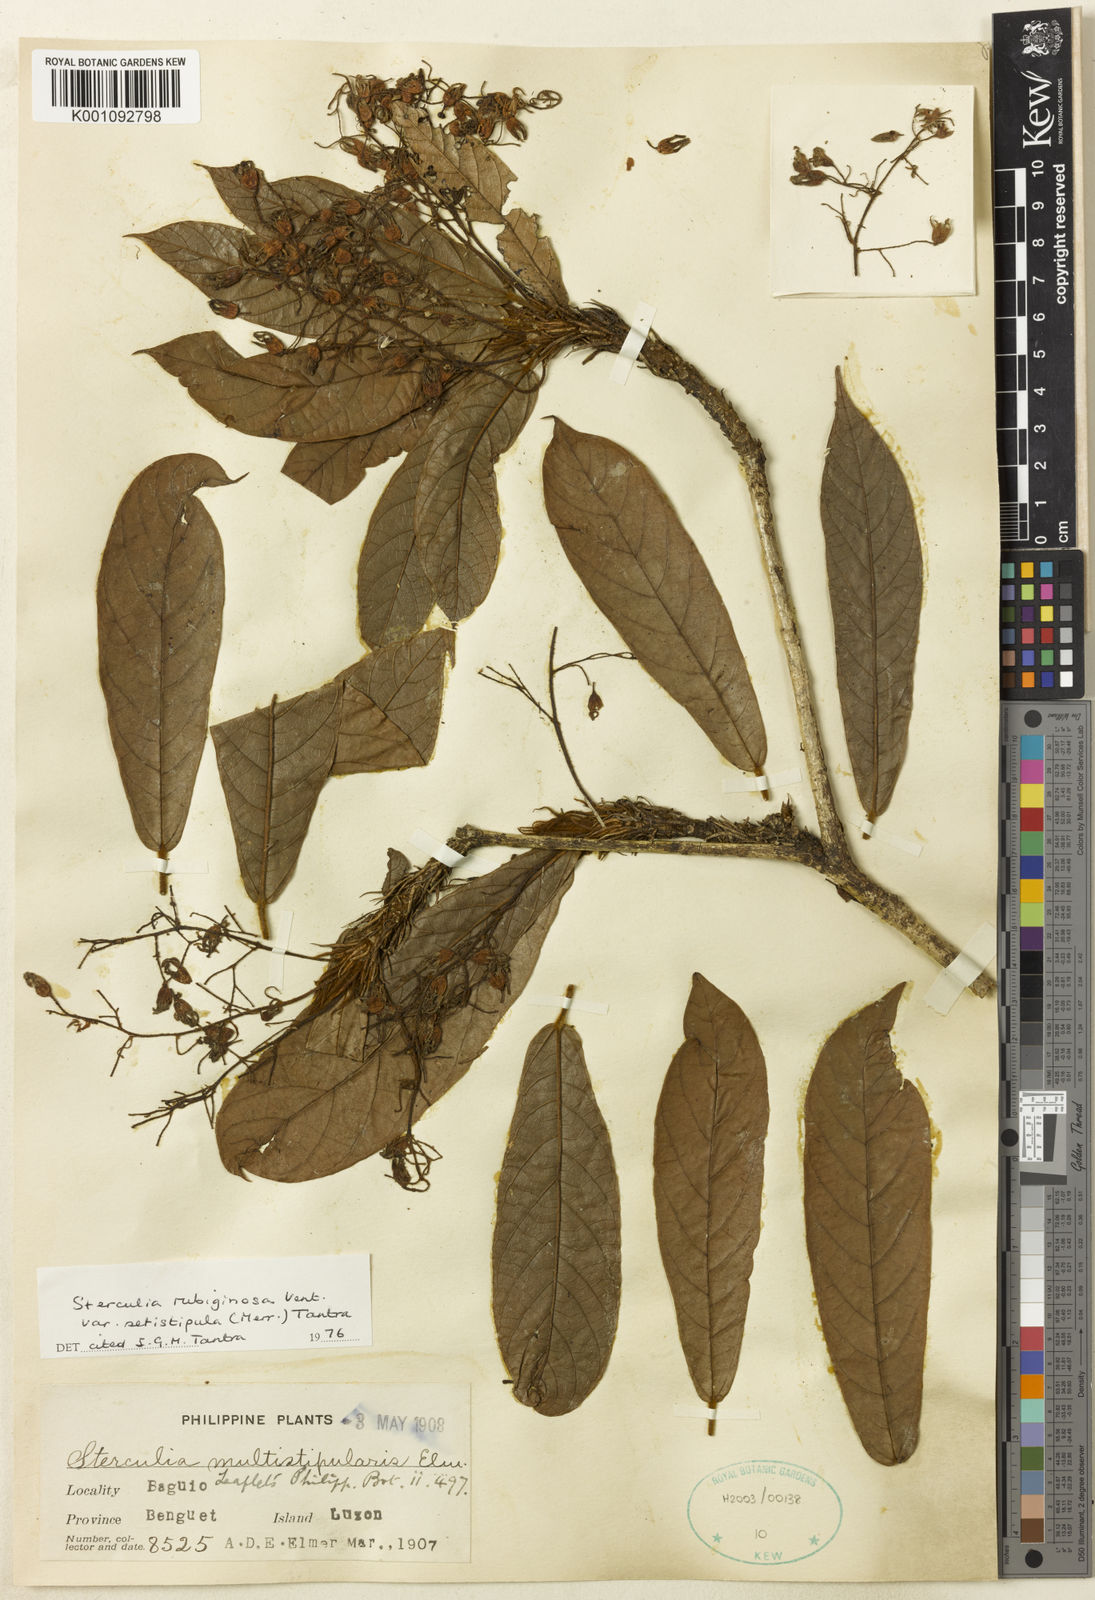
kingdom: Plantae
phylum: Tracheophyta
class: Magnoliopsida
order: Malvales
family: Malvaceae
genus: Sterculia
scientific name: Sterculia rubiginosa
